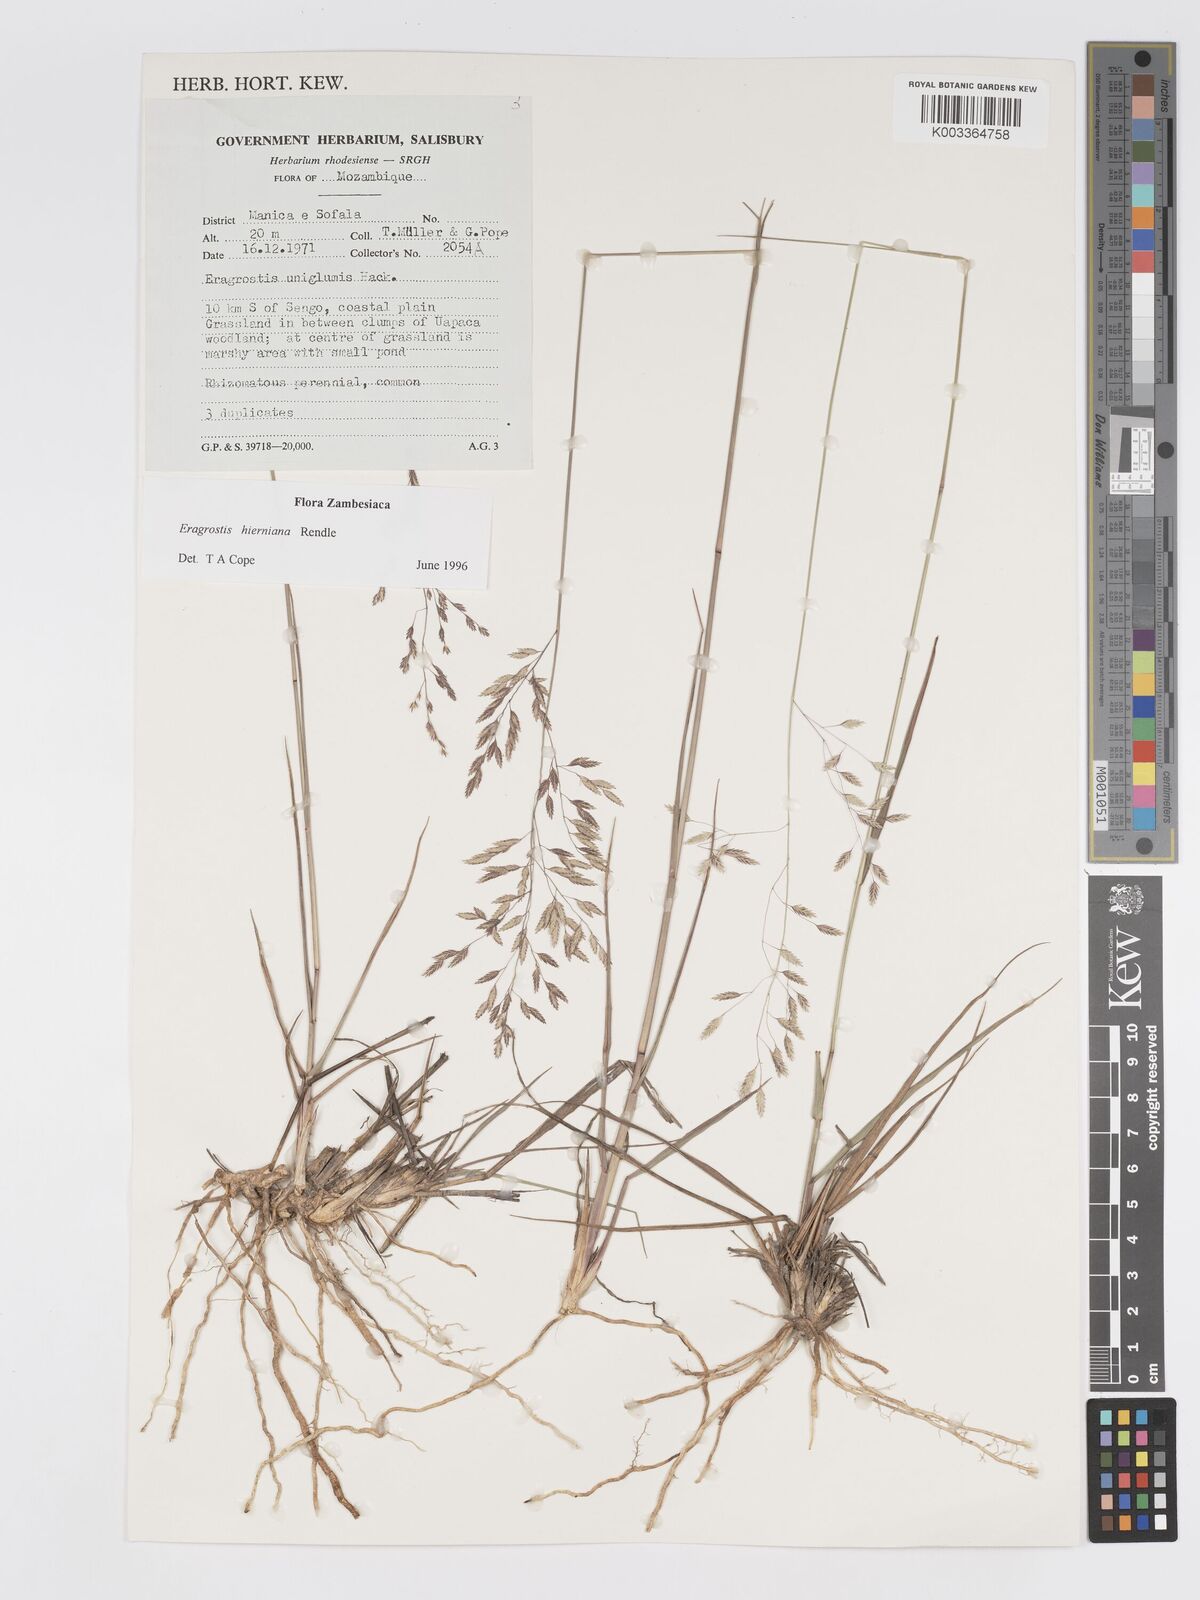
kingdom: Plantae
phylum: Tracheophyta
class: Liliopsida
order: Poales
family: Poaceae
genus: Eragrostis
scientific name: Eragrostis hierniana
